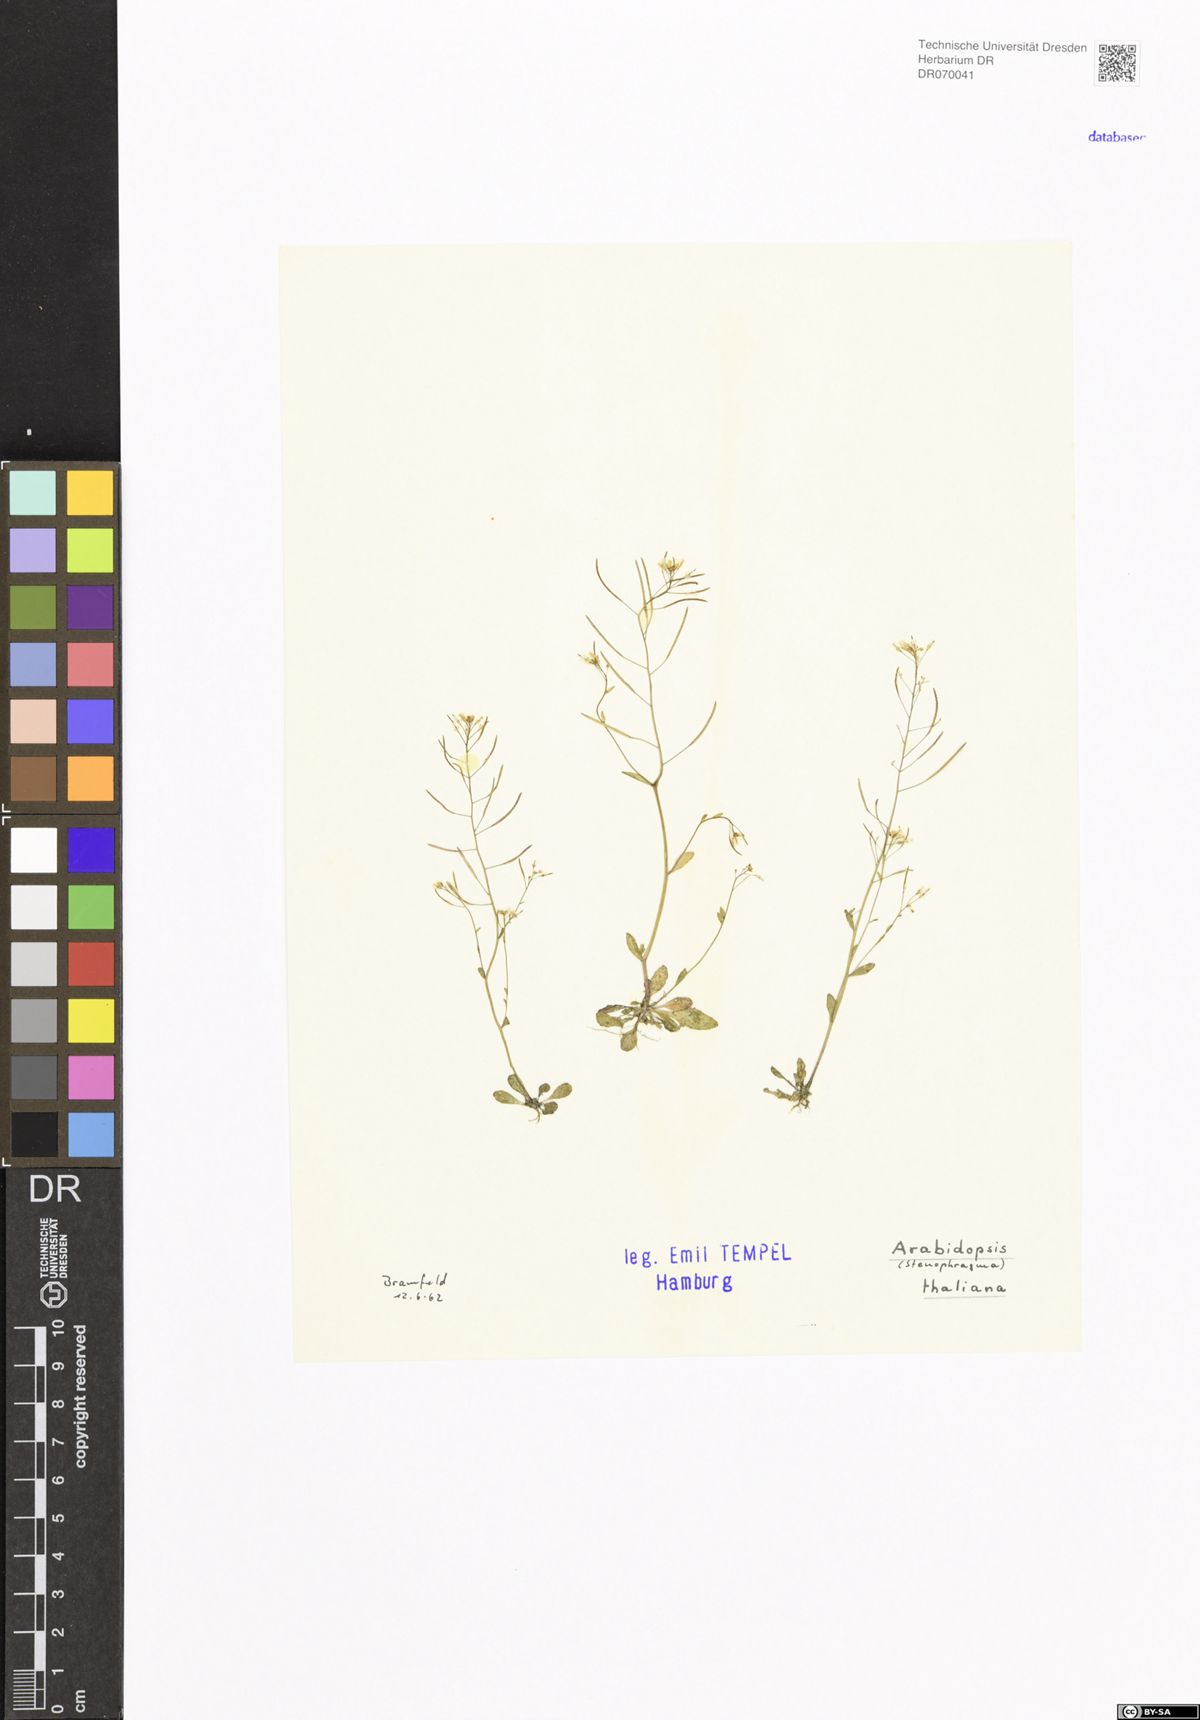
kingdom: Plantae
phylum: Tracheophyta
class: Magnoliopsida
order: Brassicales
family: Brassicaceae
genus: Arabidopsis
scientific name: Arabidopsis thaliana
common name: Thale cress
